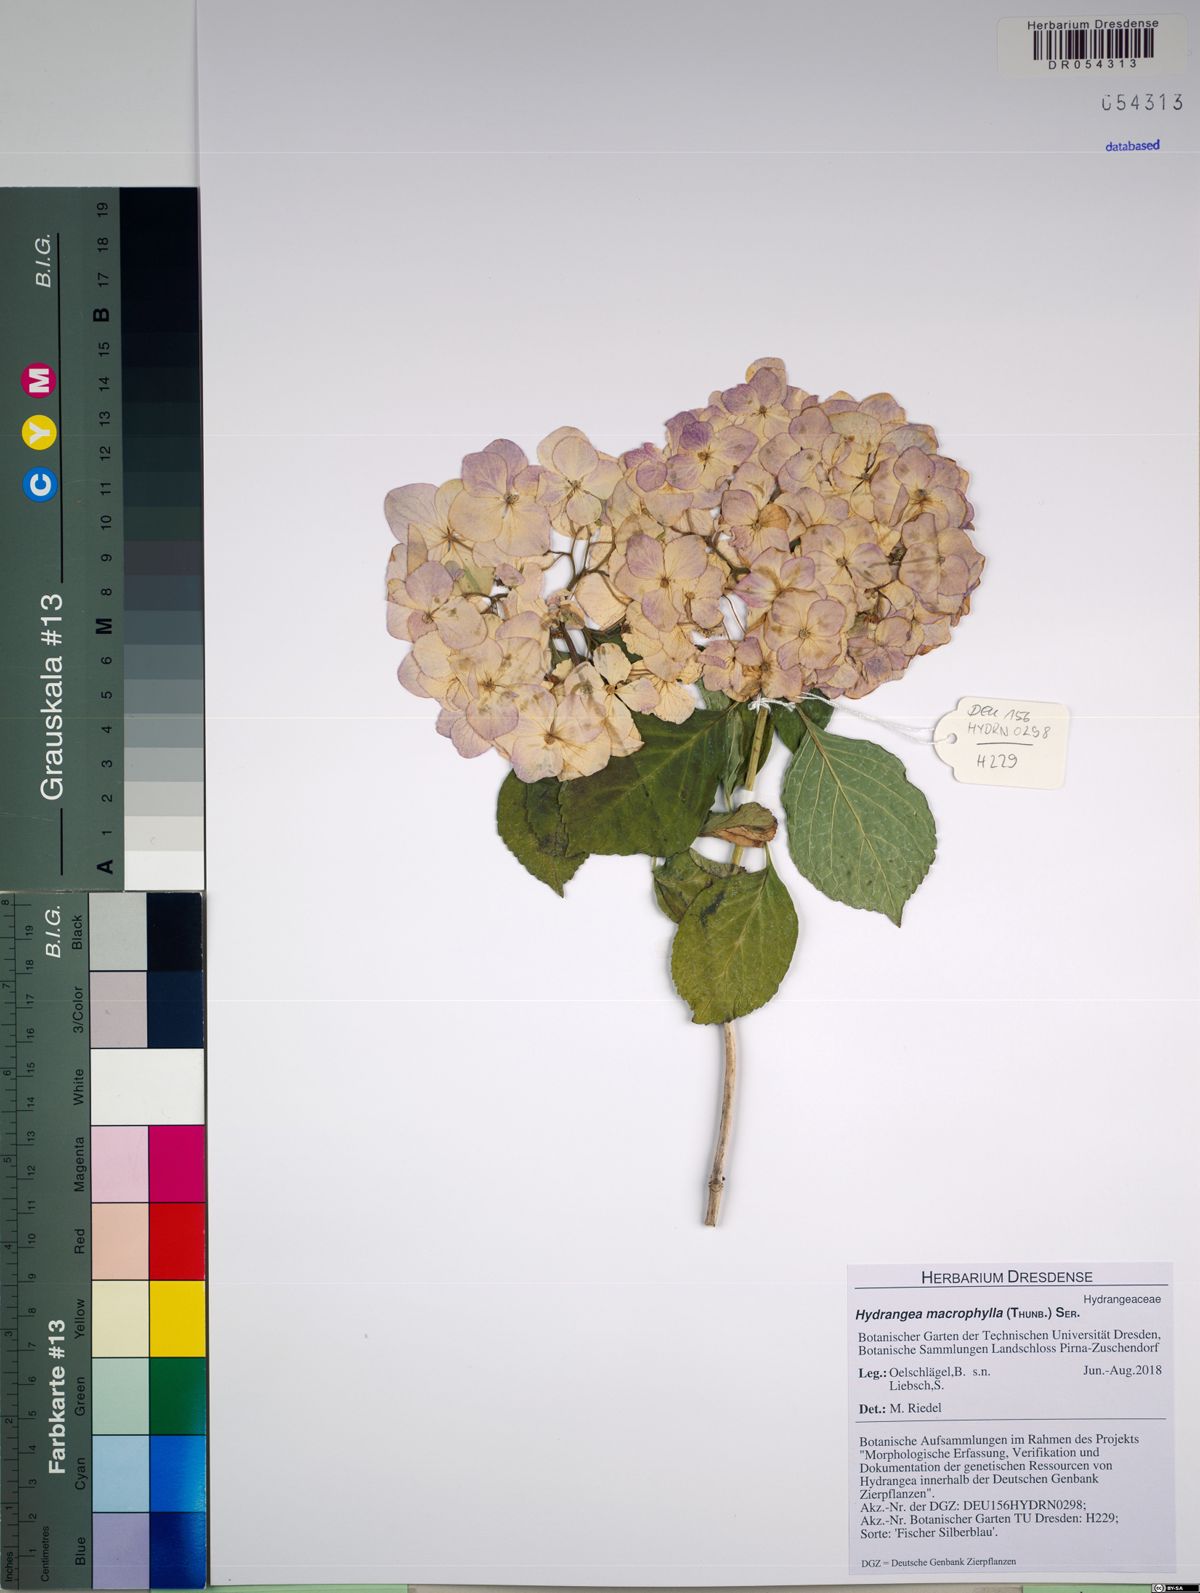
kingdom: Plantae
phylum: Tracheophyta
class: Magnoliopsida
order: Cornales
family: Hydrangeaceae
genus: Hydrangea
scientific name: Hydrangea macrophylla
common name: Hydrangea
